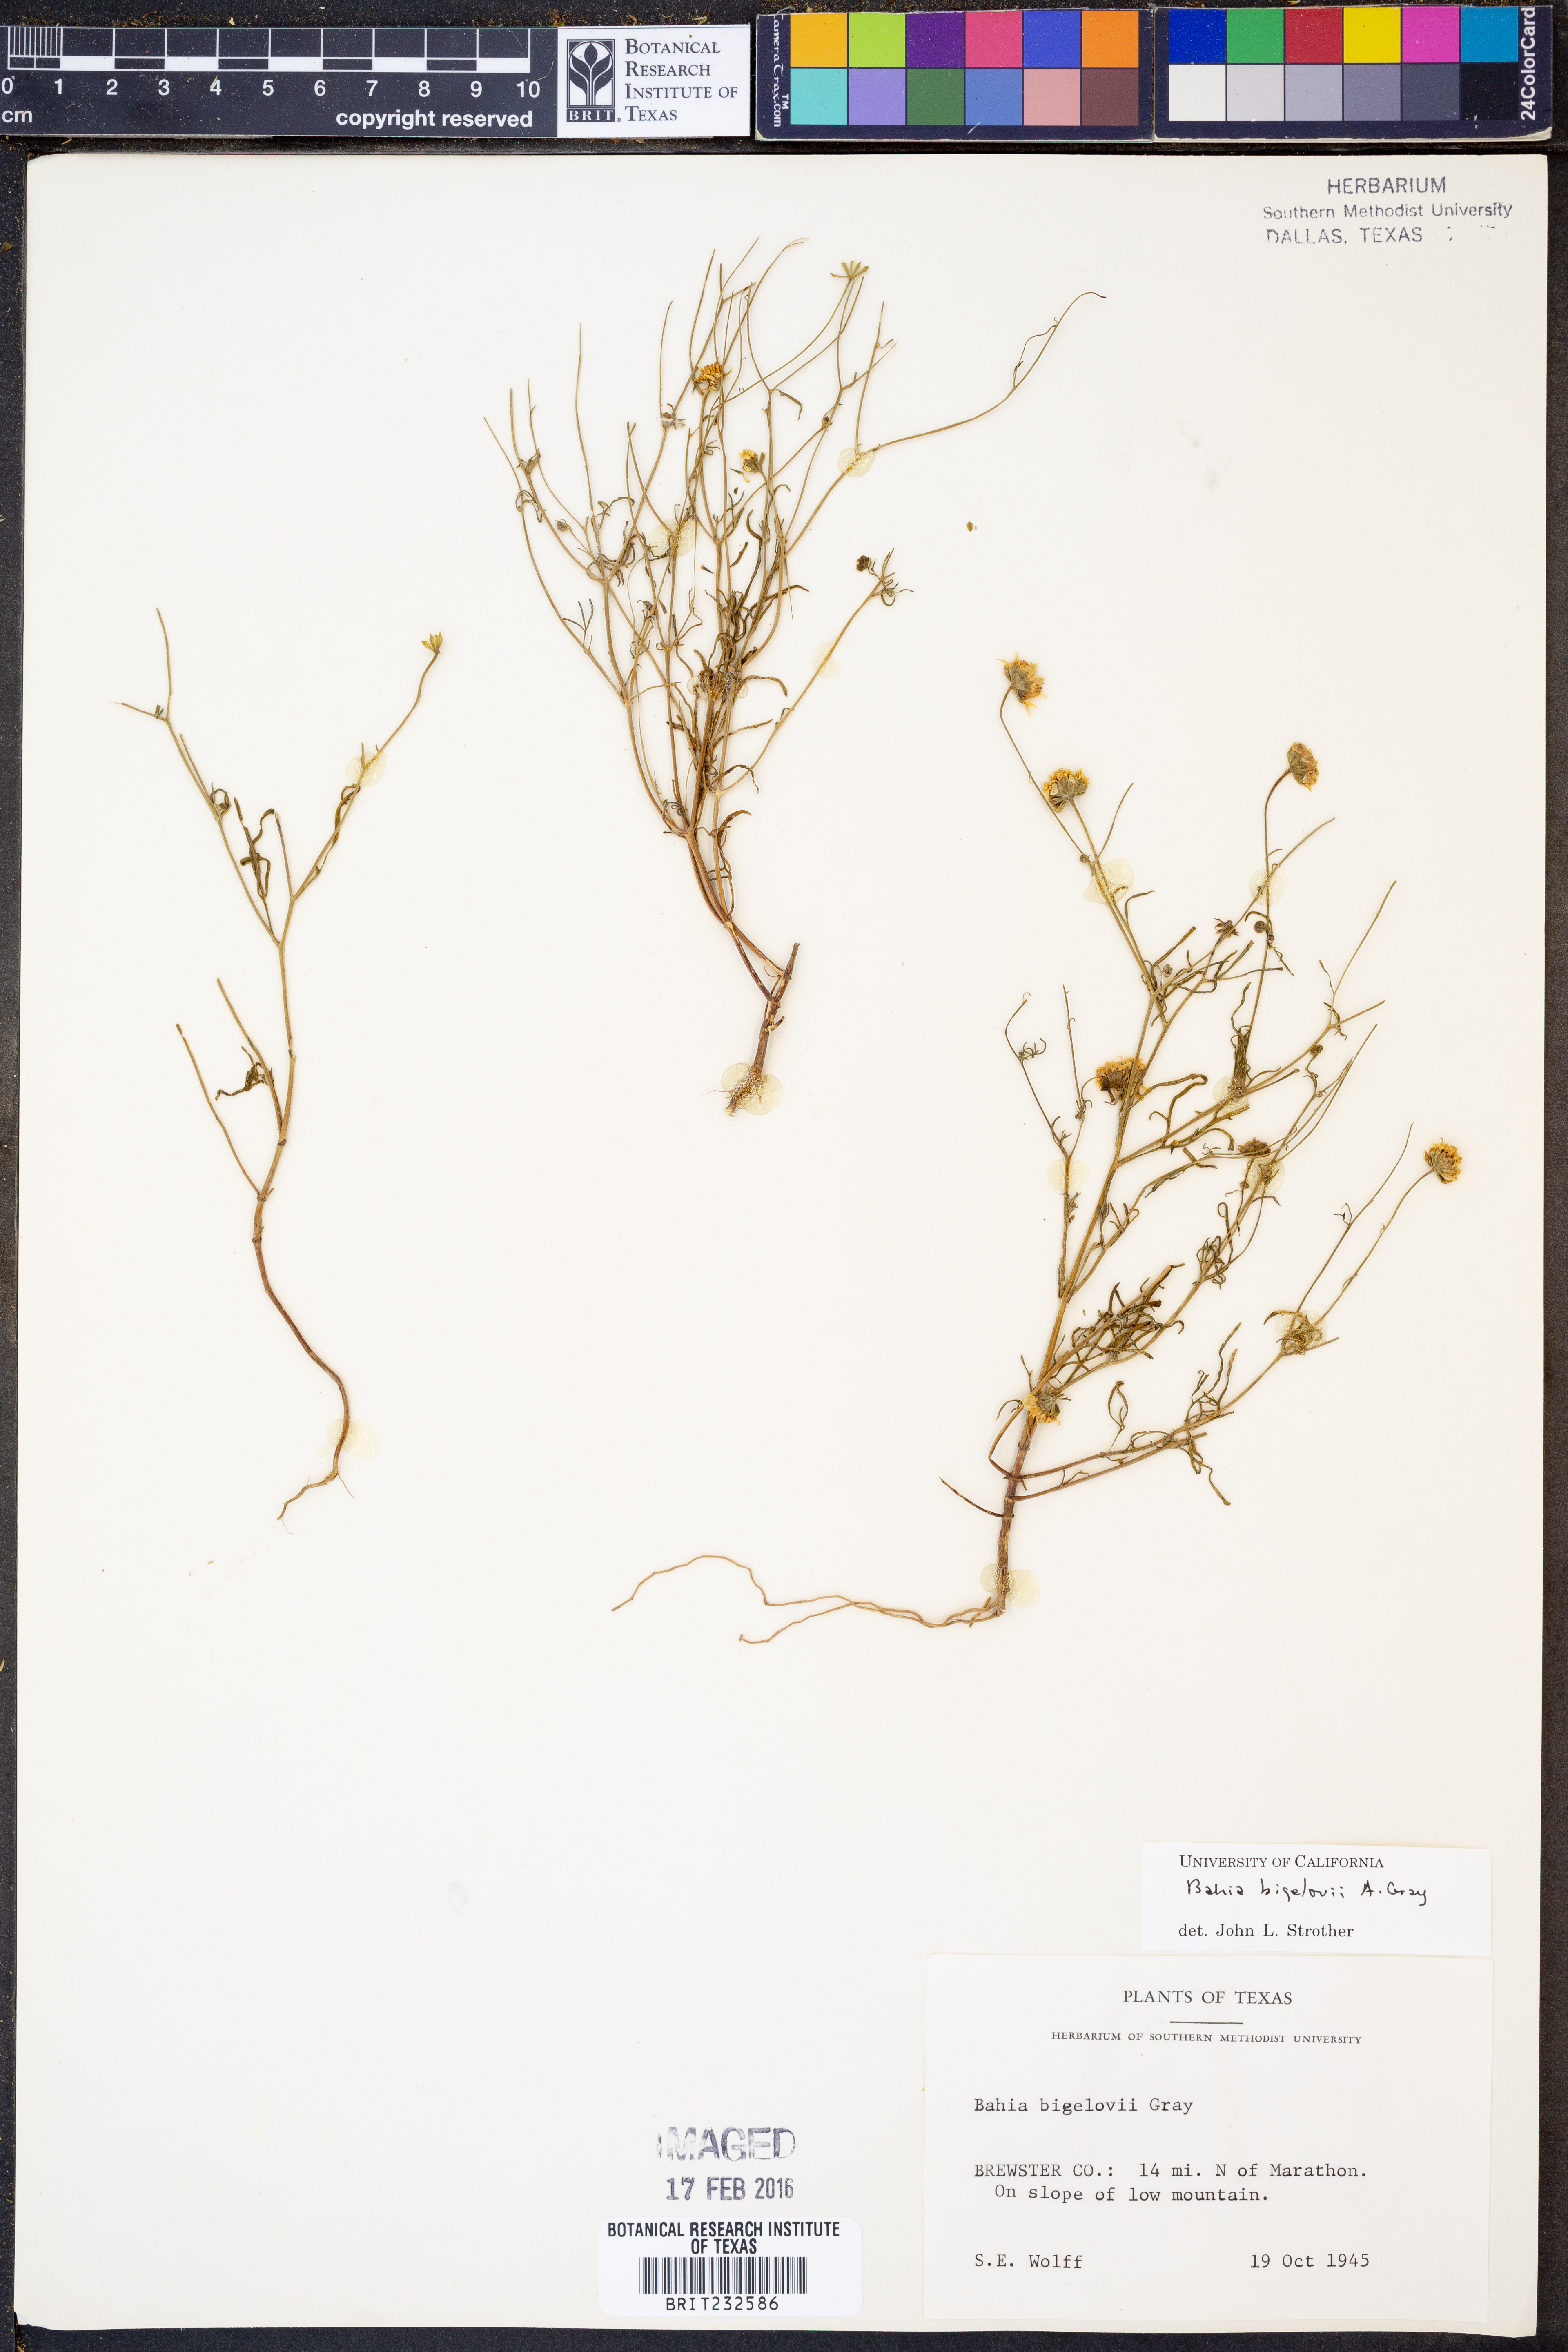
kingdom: Plantae
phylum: Tracheophyta
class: Magnoliopsida
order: Asterales
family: Asteraceae
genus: Picradeniopsis
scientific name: Picradeniopsis bigelovii
